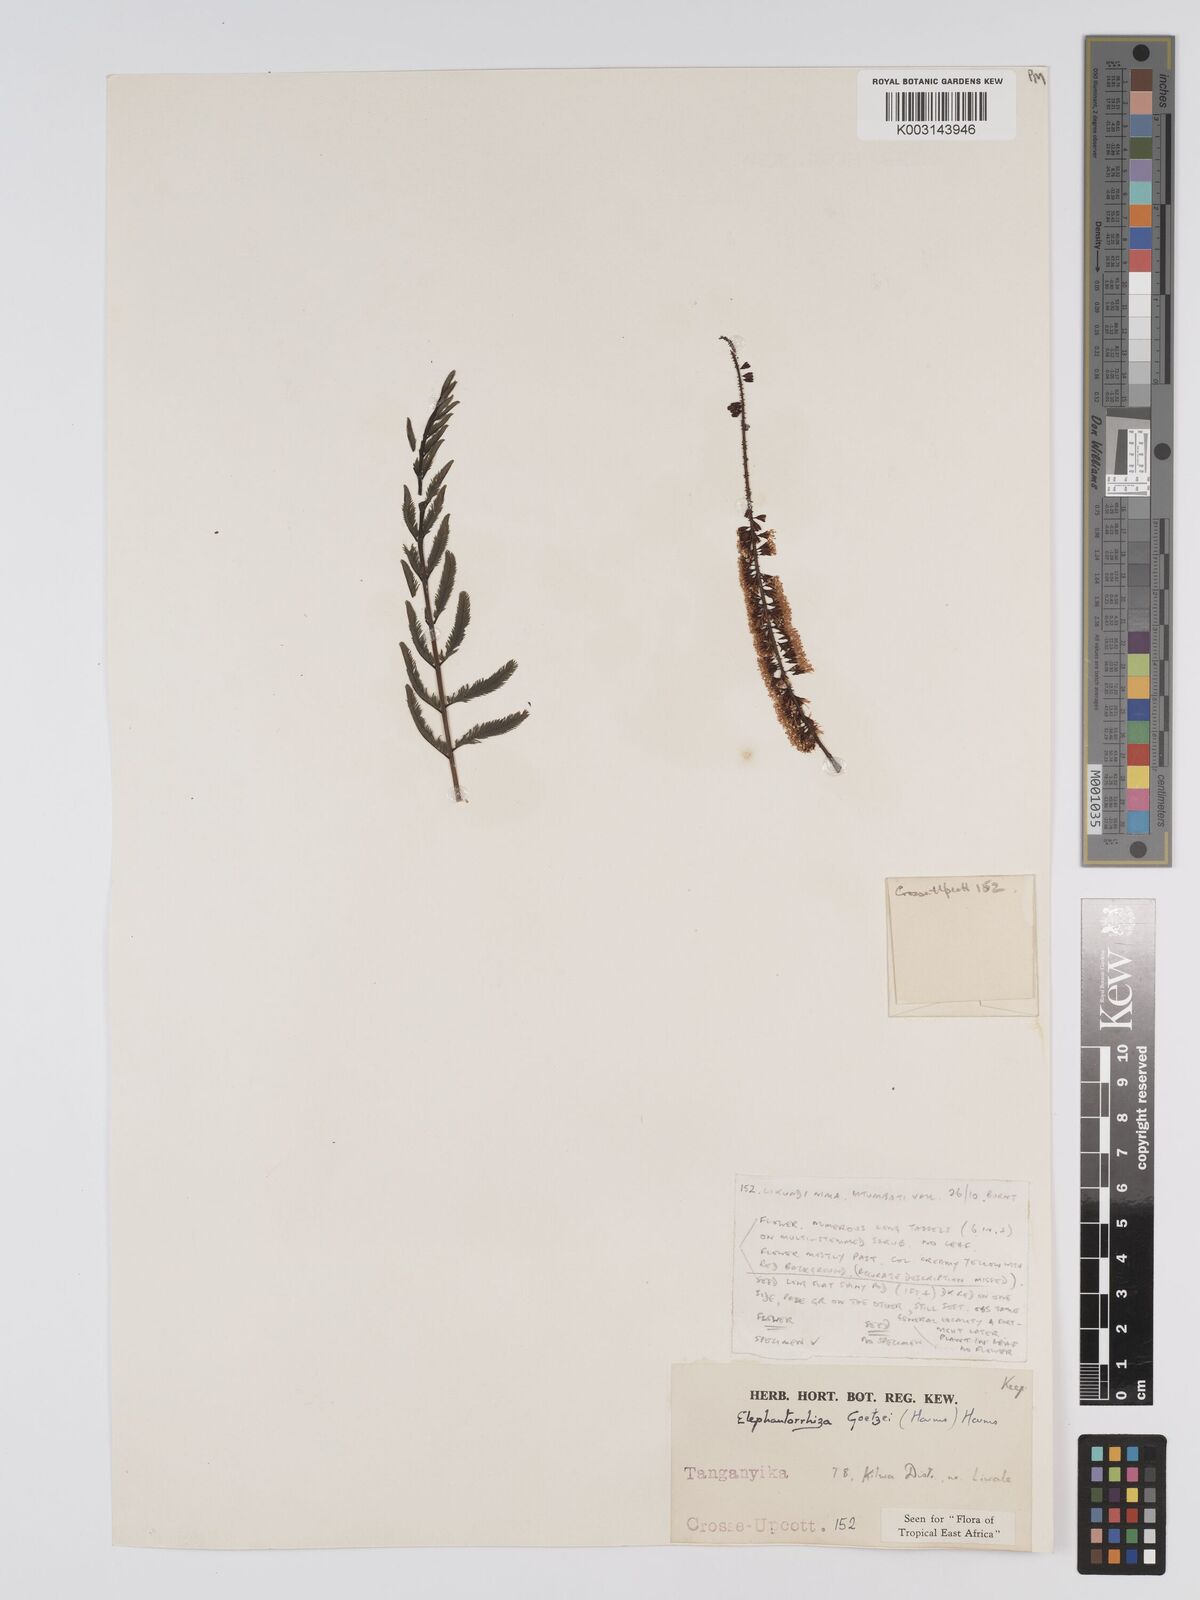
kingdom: Plantae
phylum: Tracheophyta
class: Magnoliopsida
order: Fabales
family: Fabaceae
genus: Elephantorrhiza
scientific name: Elephantorrhiza goetzei
